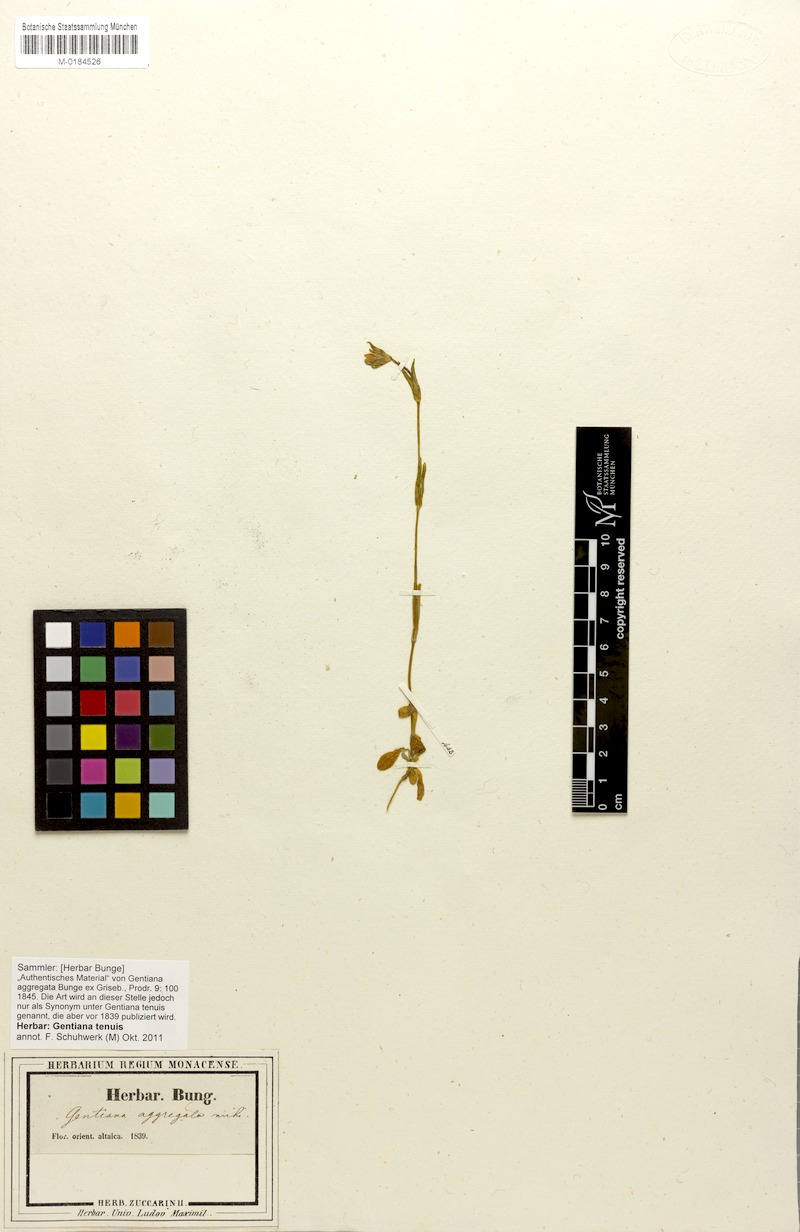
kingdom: Plantae
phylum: Tracheophyta
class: Magnoliopsida
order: Gentianales
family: Gentianaceae
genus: Gentianella
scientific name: Gentianella atrata
